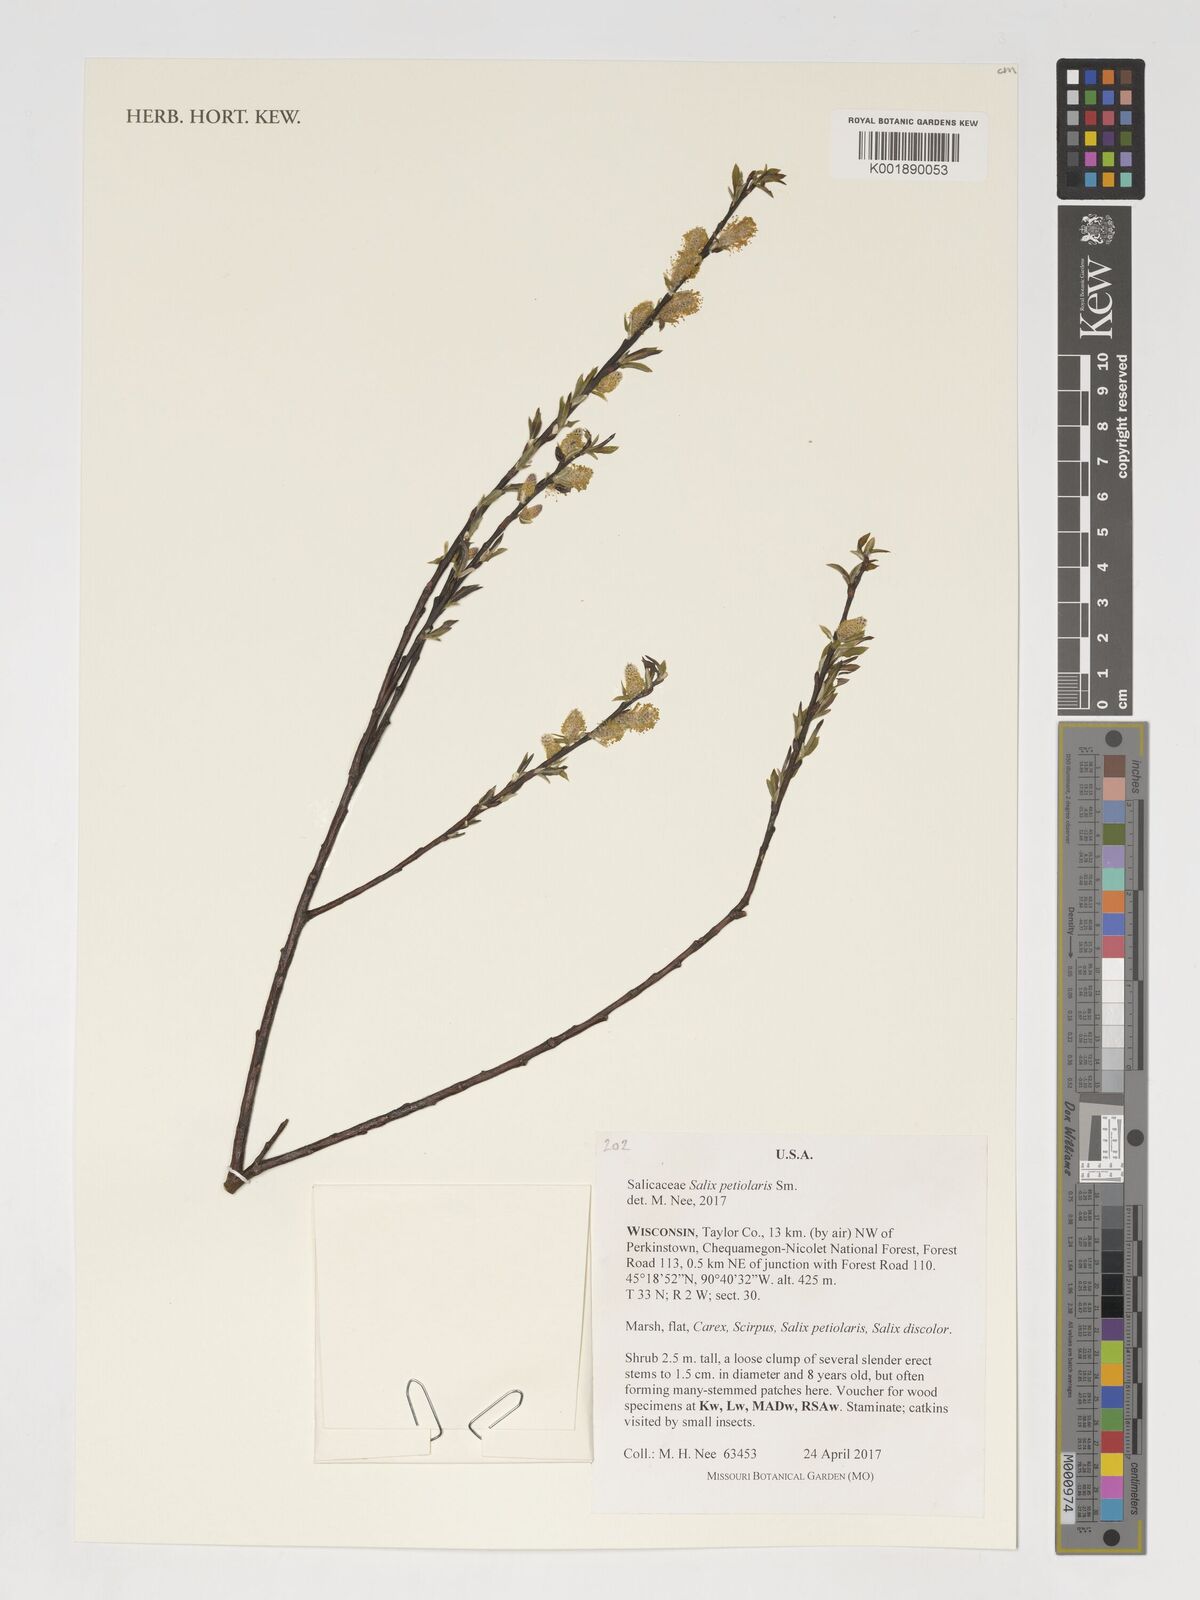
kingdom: Plantae
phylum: Tracheophyta
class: Magnoliopsida
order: Malpighiales
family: Salicaceae
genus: Salix
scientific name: Salix petiolaris
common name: Slender willow
